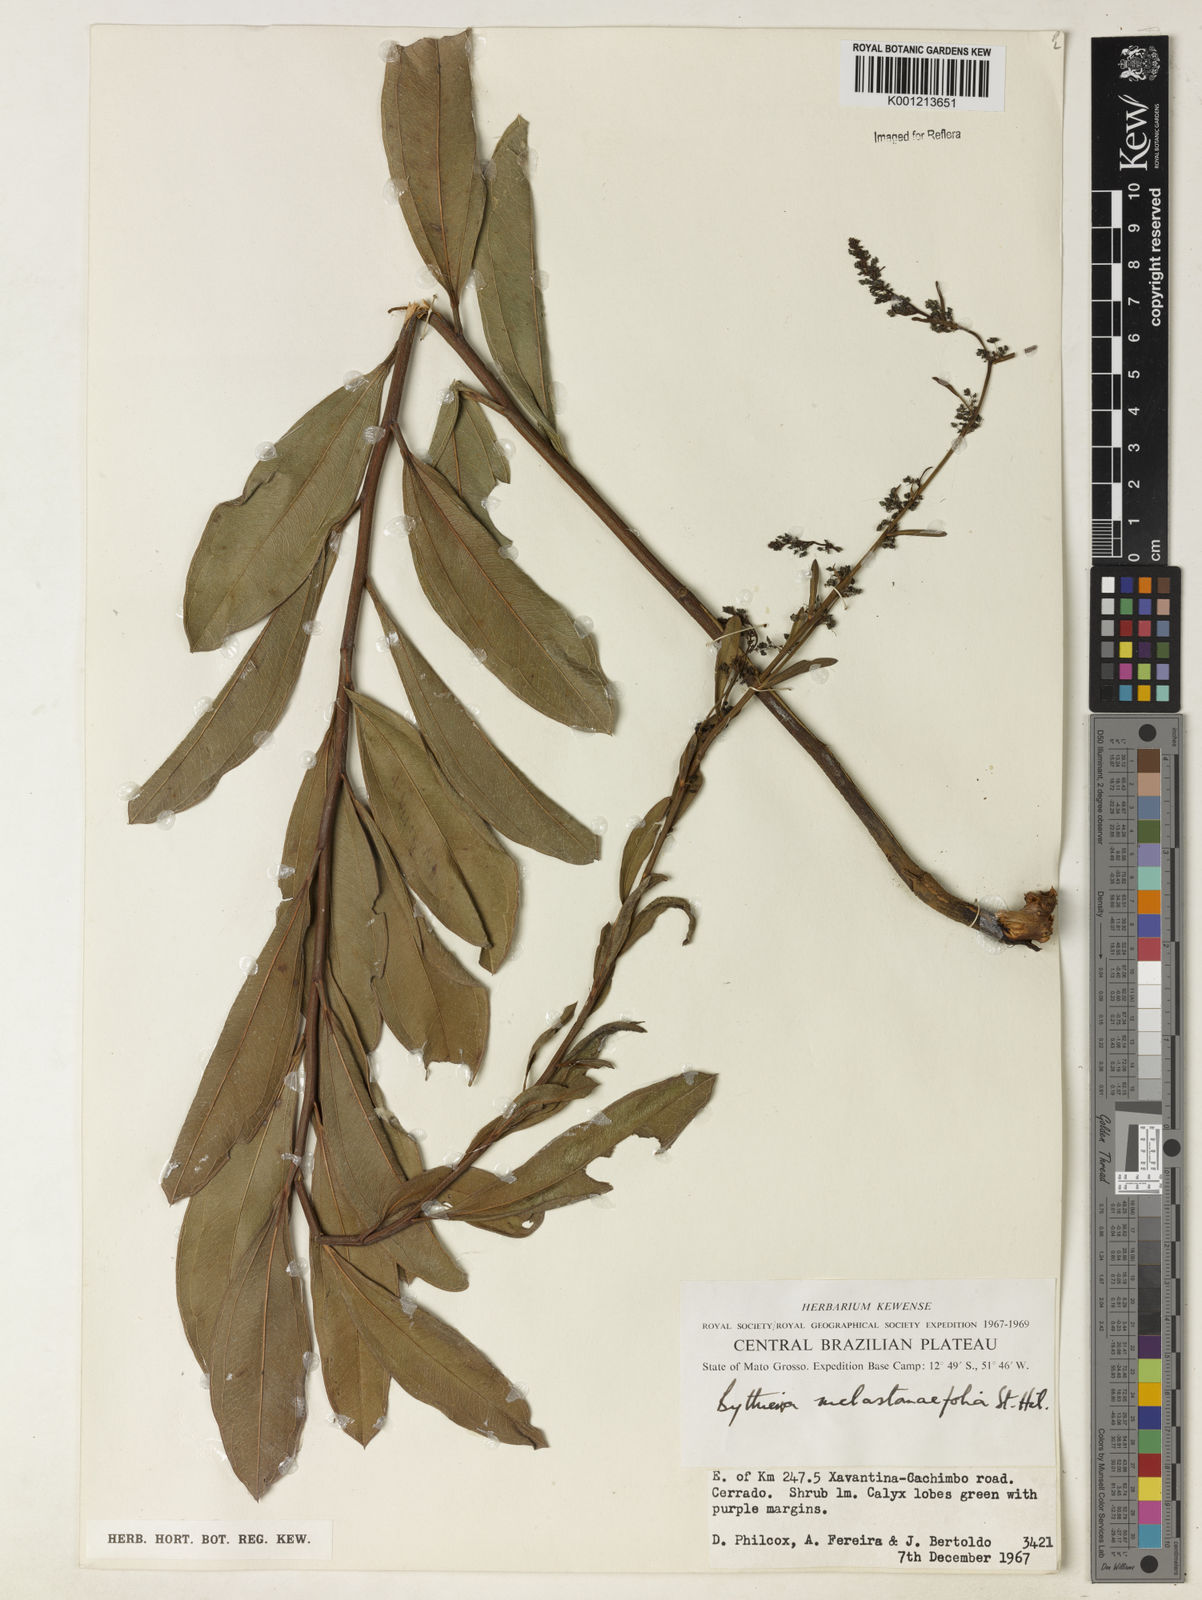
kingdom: Plantae
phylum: Tracheophyta
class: Magnoliopsida
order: Malvales
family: Malvaceae
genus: Byttneria
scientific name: Byttneria melastomifolia
